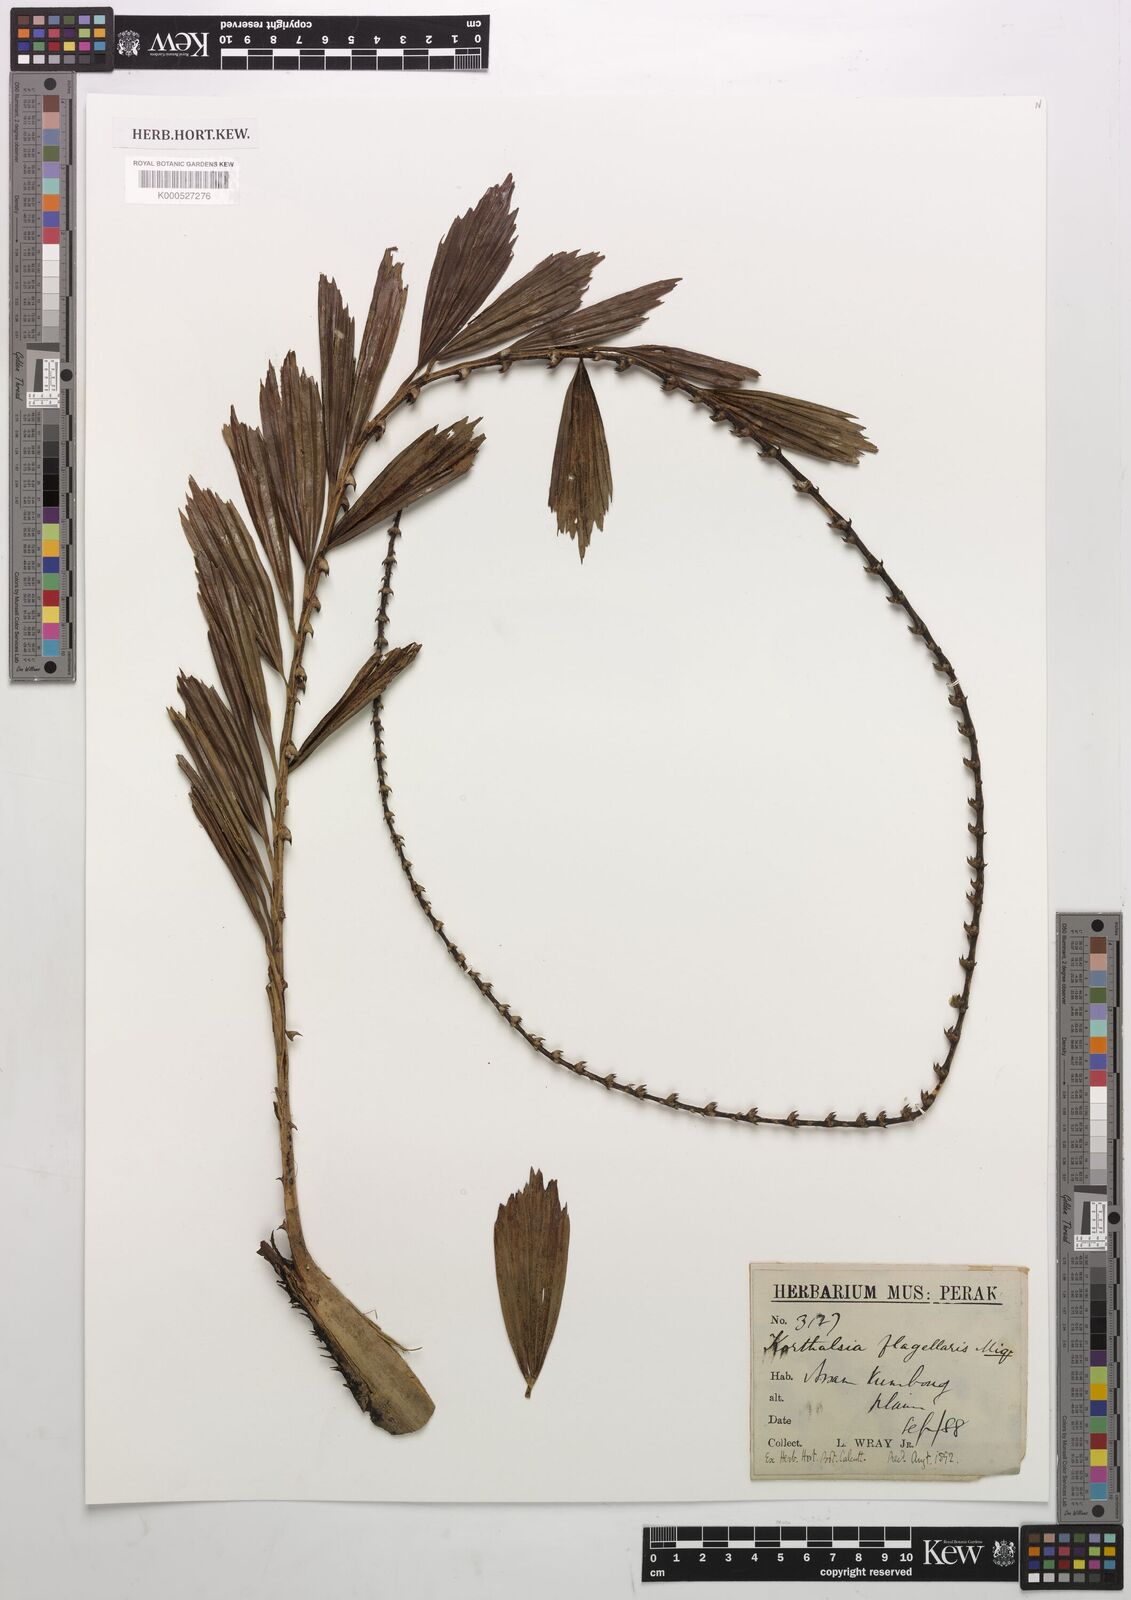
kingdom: Plantae
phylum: Tracheophyta
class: Liliopsida
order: Arecales
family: Arecaceae
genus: Korthalsia
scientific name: Korthalsia flagellaris
